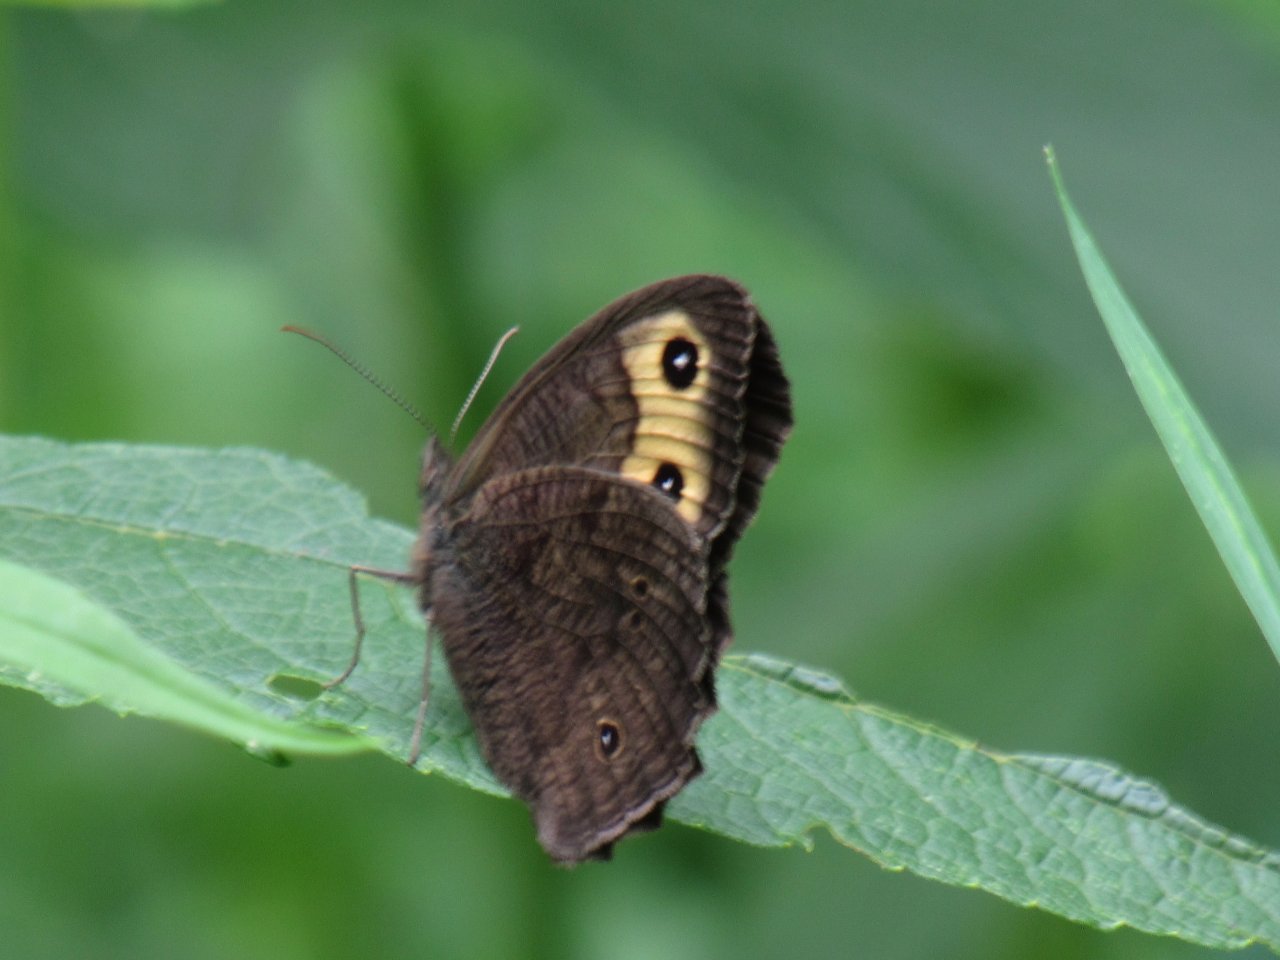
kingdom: Animalia
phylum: Arthropoda
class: Insecta
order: Lepidoptera
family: Nymphalidae
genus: Cercyonis
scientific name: Cercyonis pegala
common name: Common Wood-Nymph
